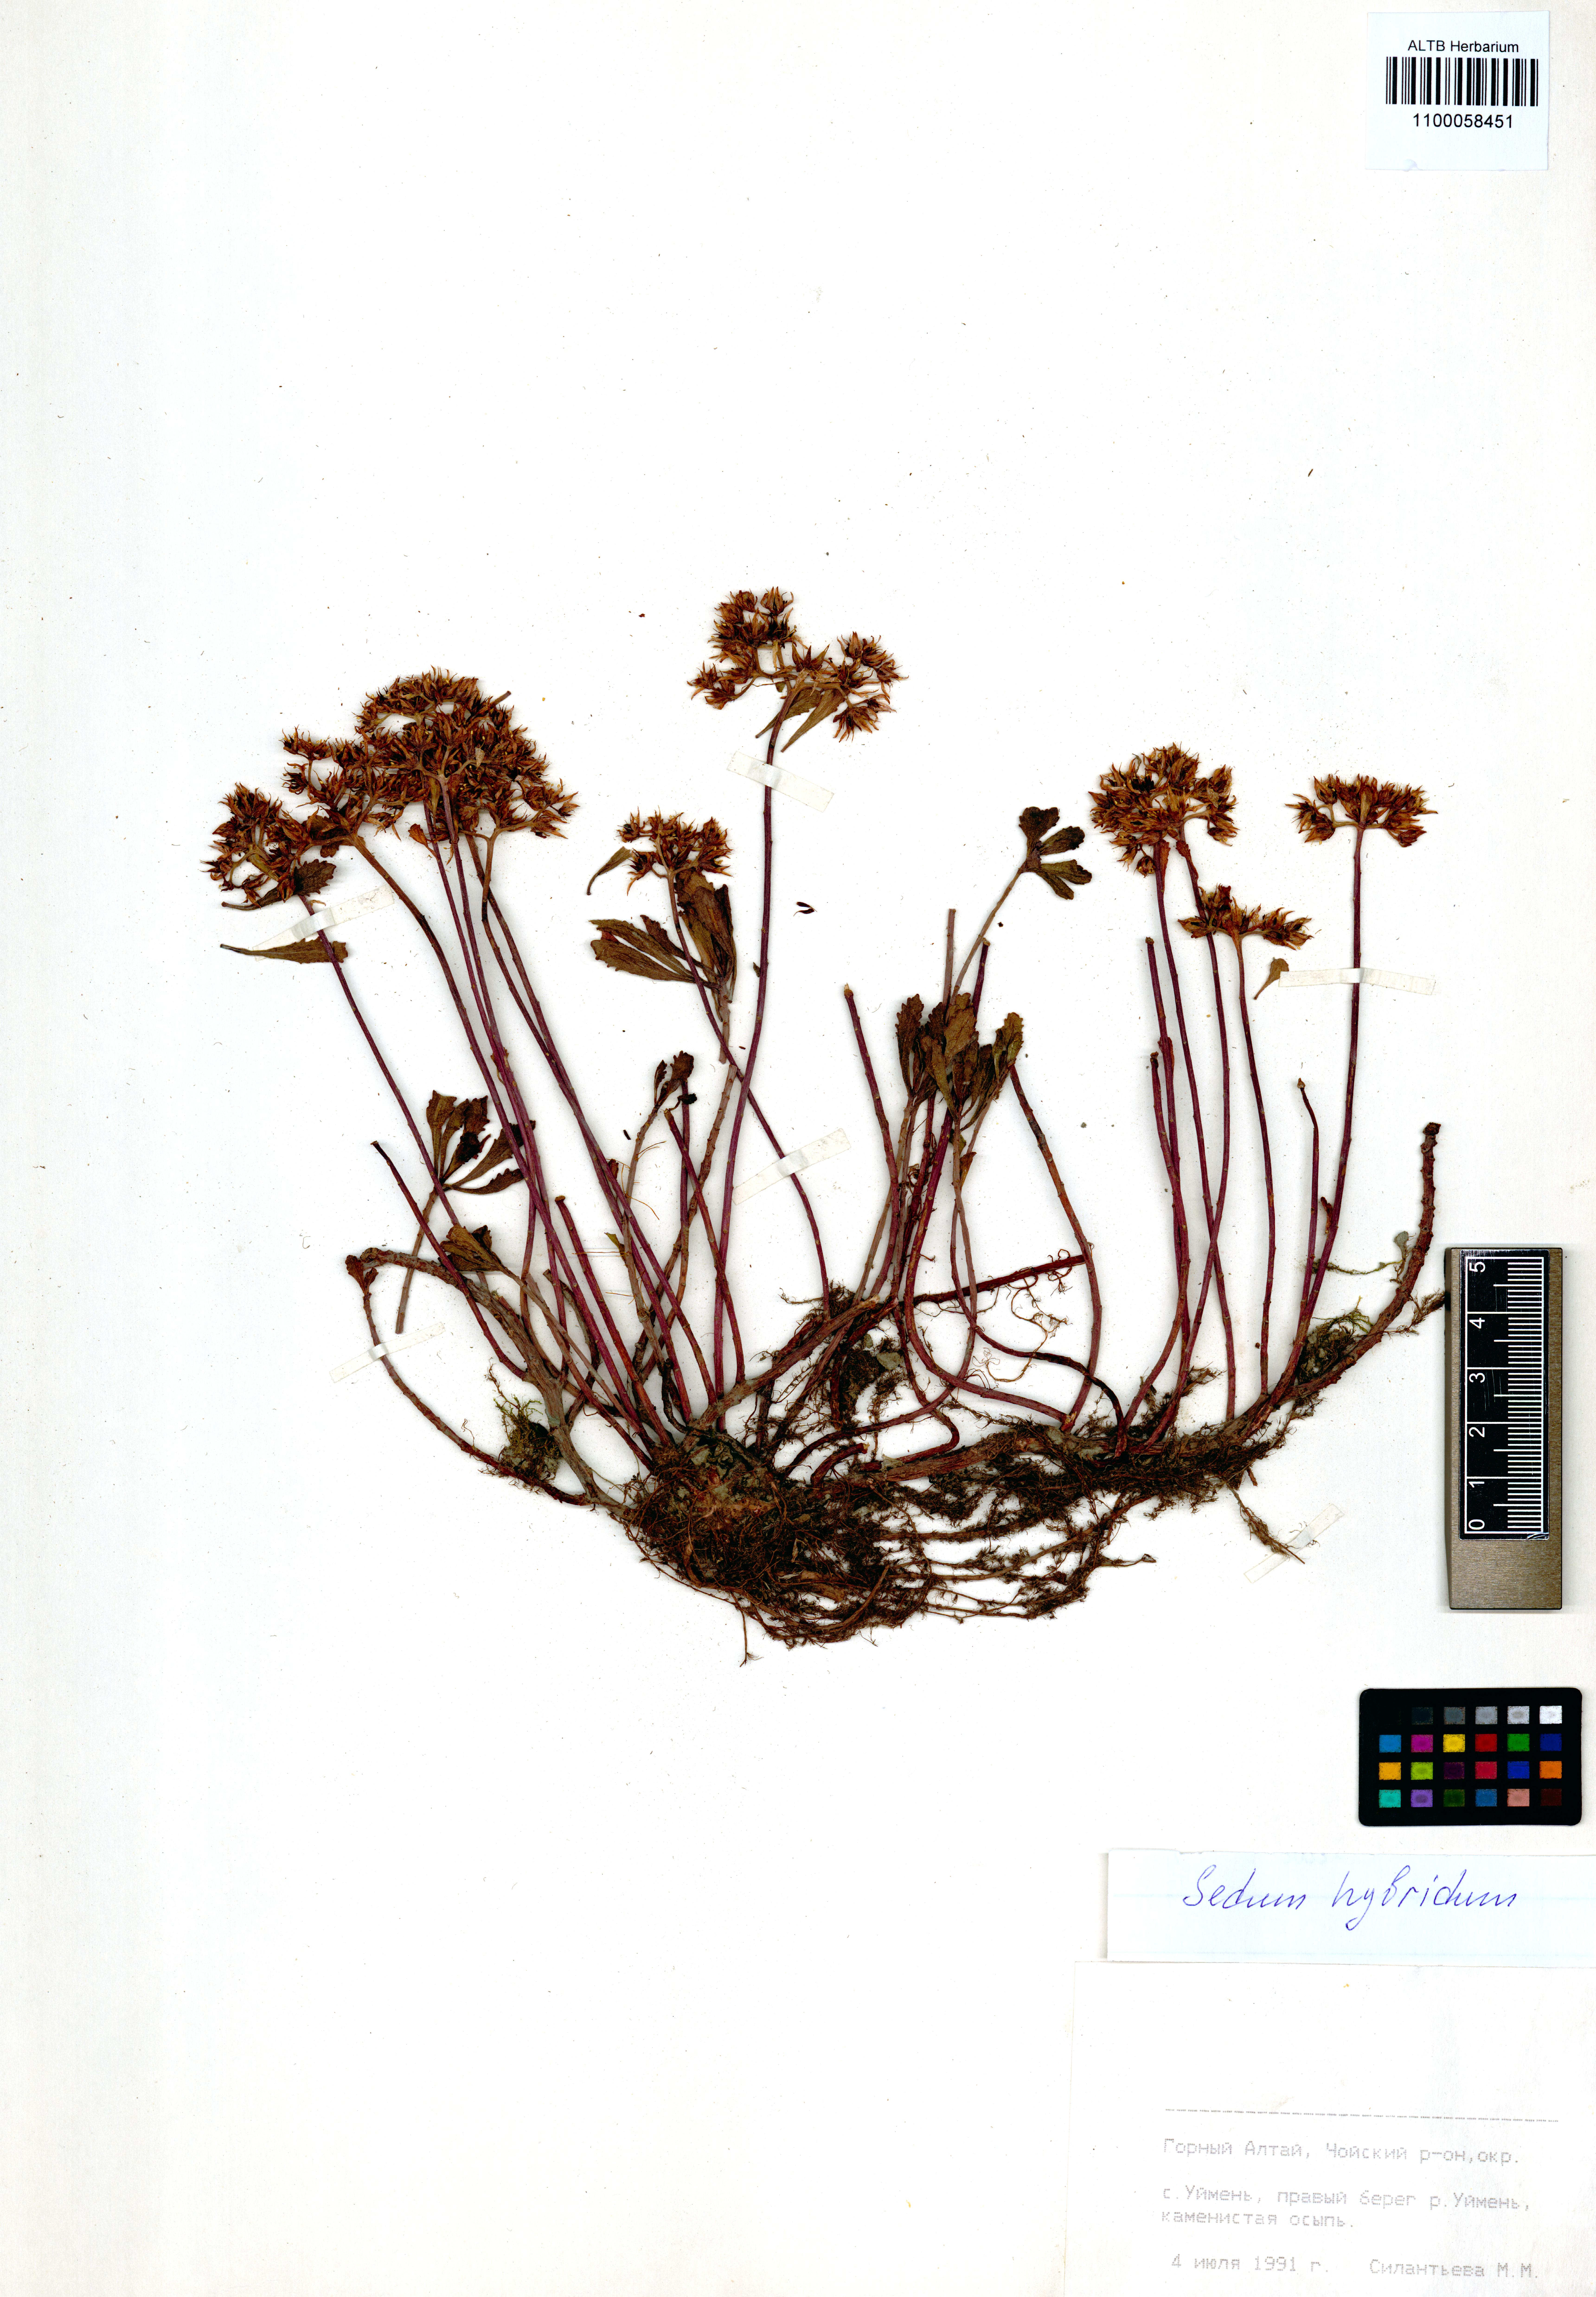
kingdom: Plantae
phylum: Tracheophyta
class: Magnoliopsida
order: Saxifragales
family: Crassulaceae
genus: Phedimus
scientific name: Phedimus hybridus
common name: Hybrid stonecrop
